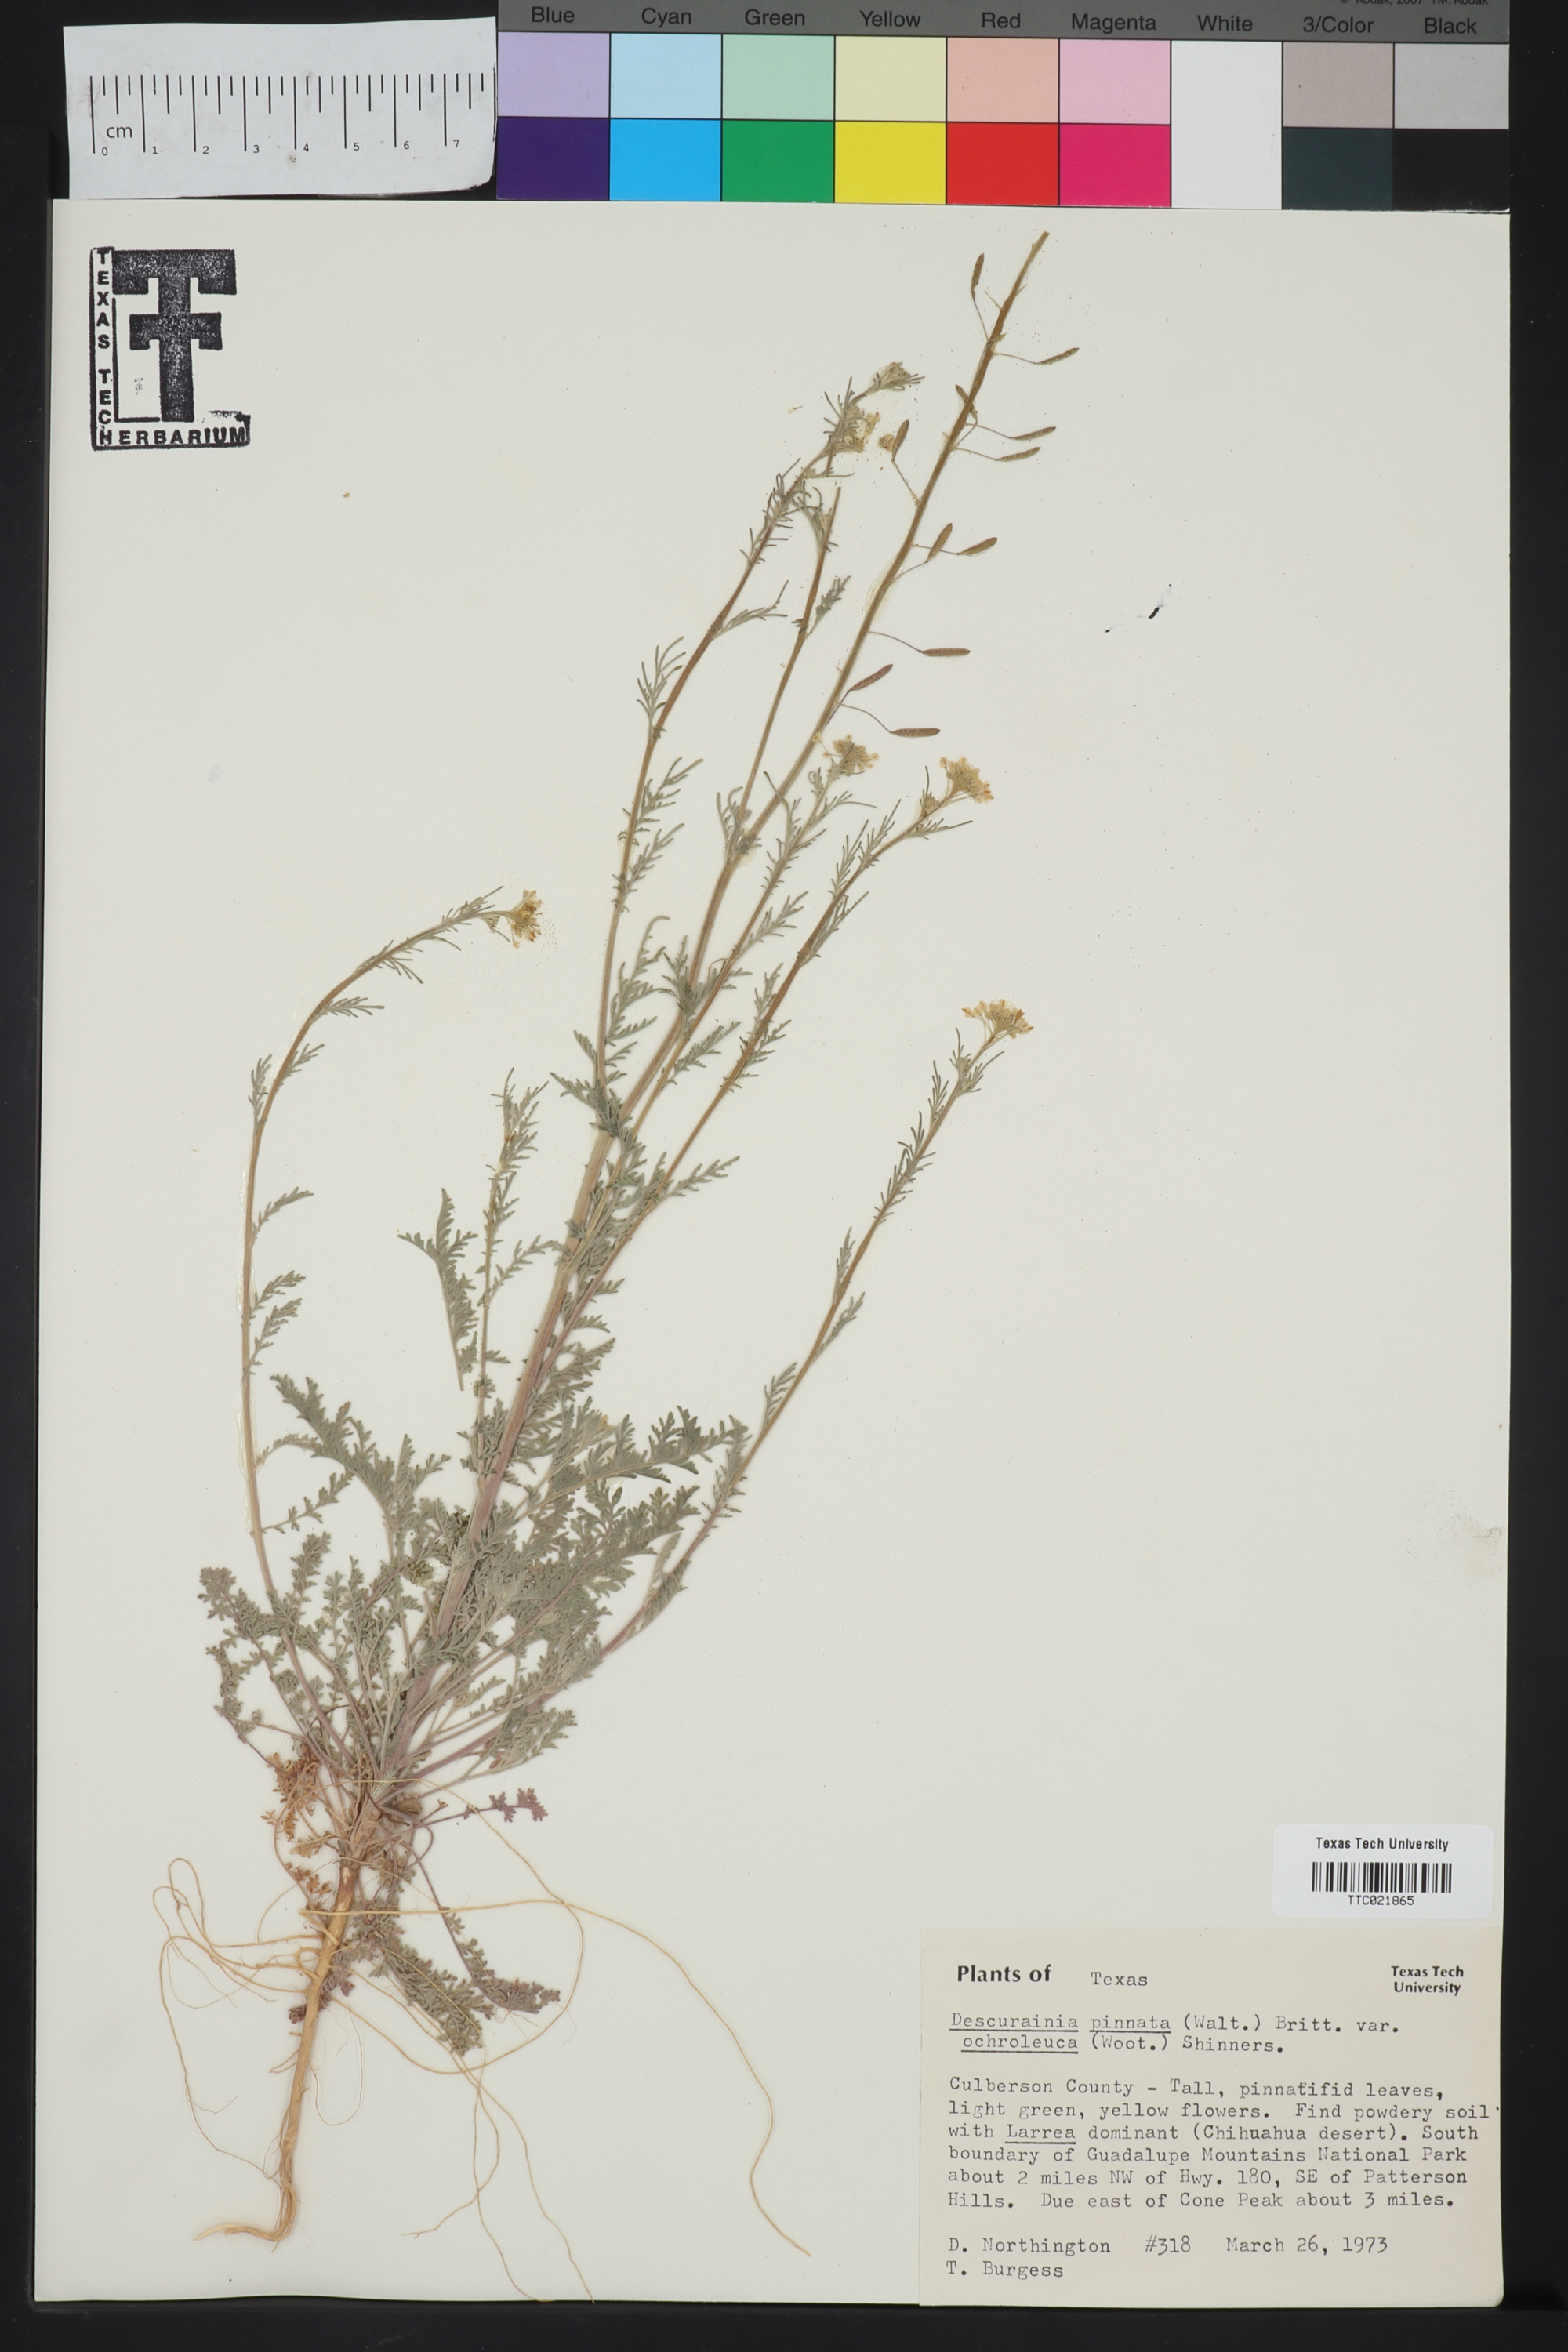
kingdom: Plantae
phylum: Tracheophyta
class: Magnoliopsida
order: Brassicales
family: Brassicaceae
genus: Descurainia
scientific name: Descurainia pinnata
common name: Western tansy mustard
